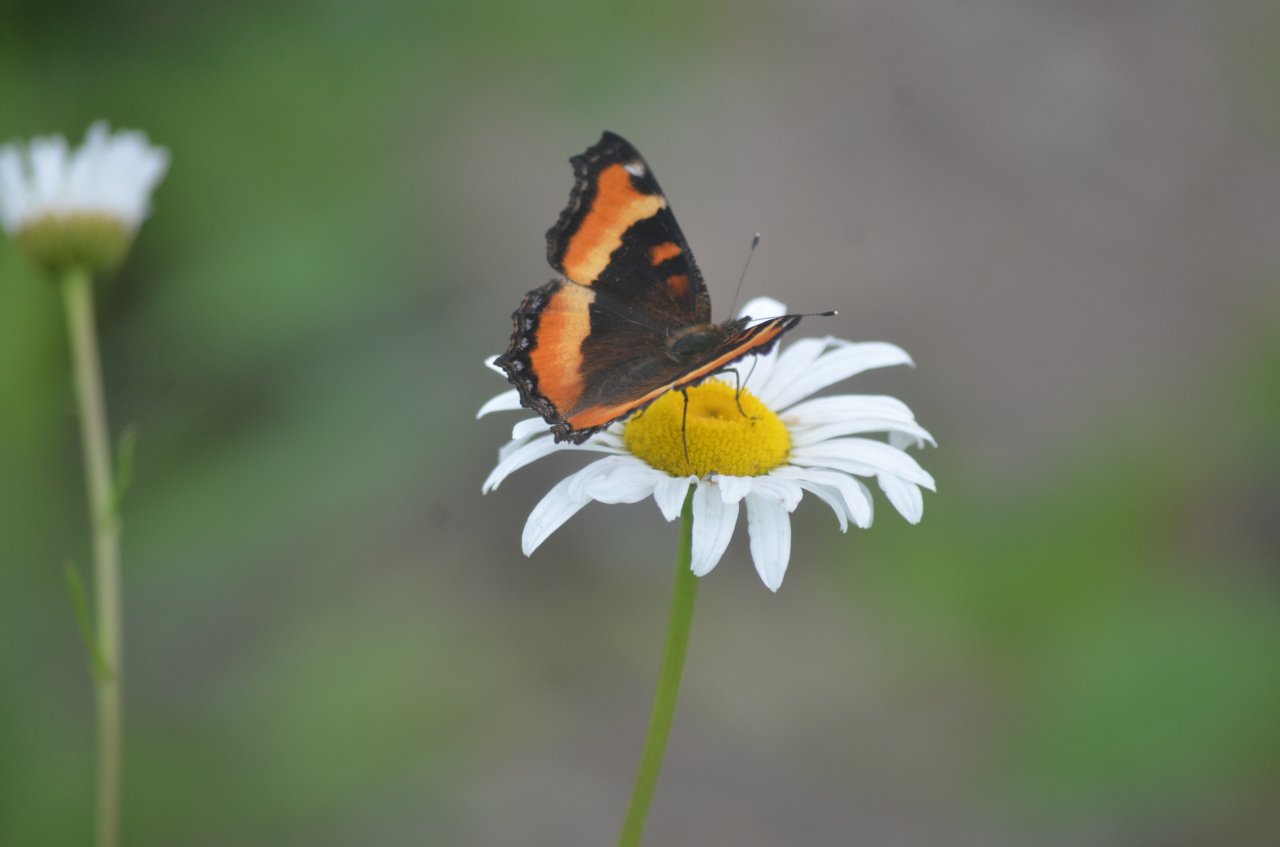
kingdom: Animalia
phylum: Arthropoda
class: Insecta
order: Lepidoptera
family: Nymphalidae
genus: Aglais
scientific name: Aglais milberti
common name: Milbert's Tortoiseshell
